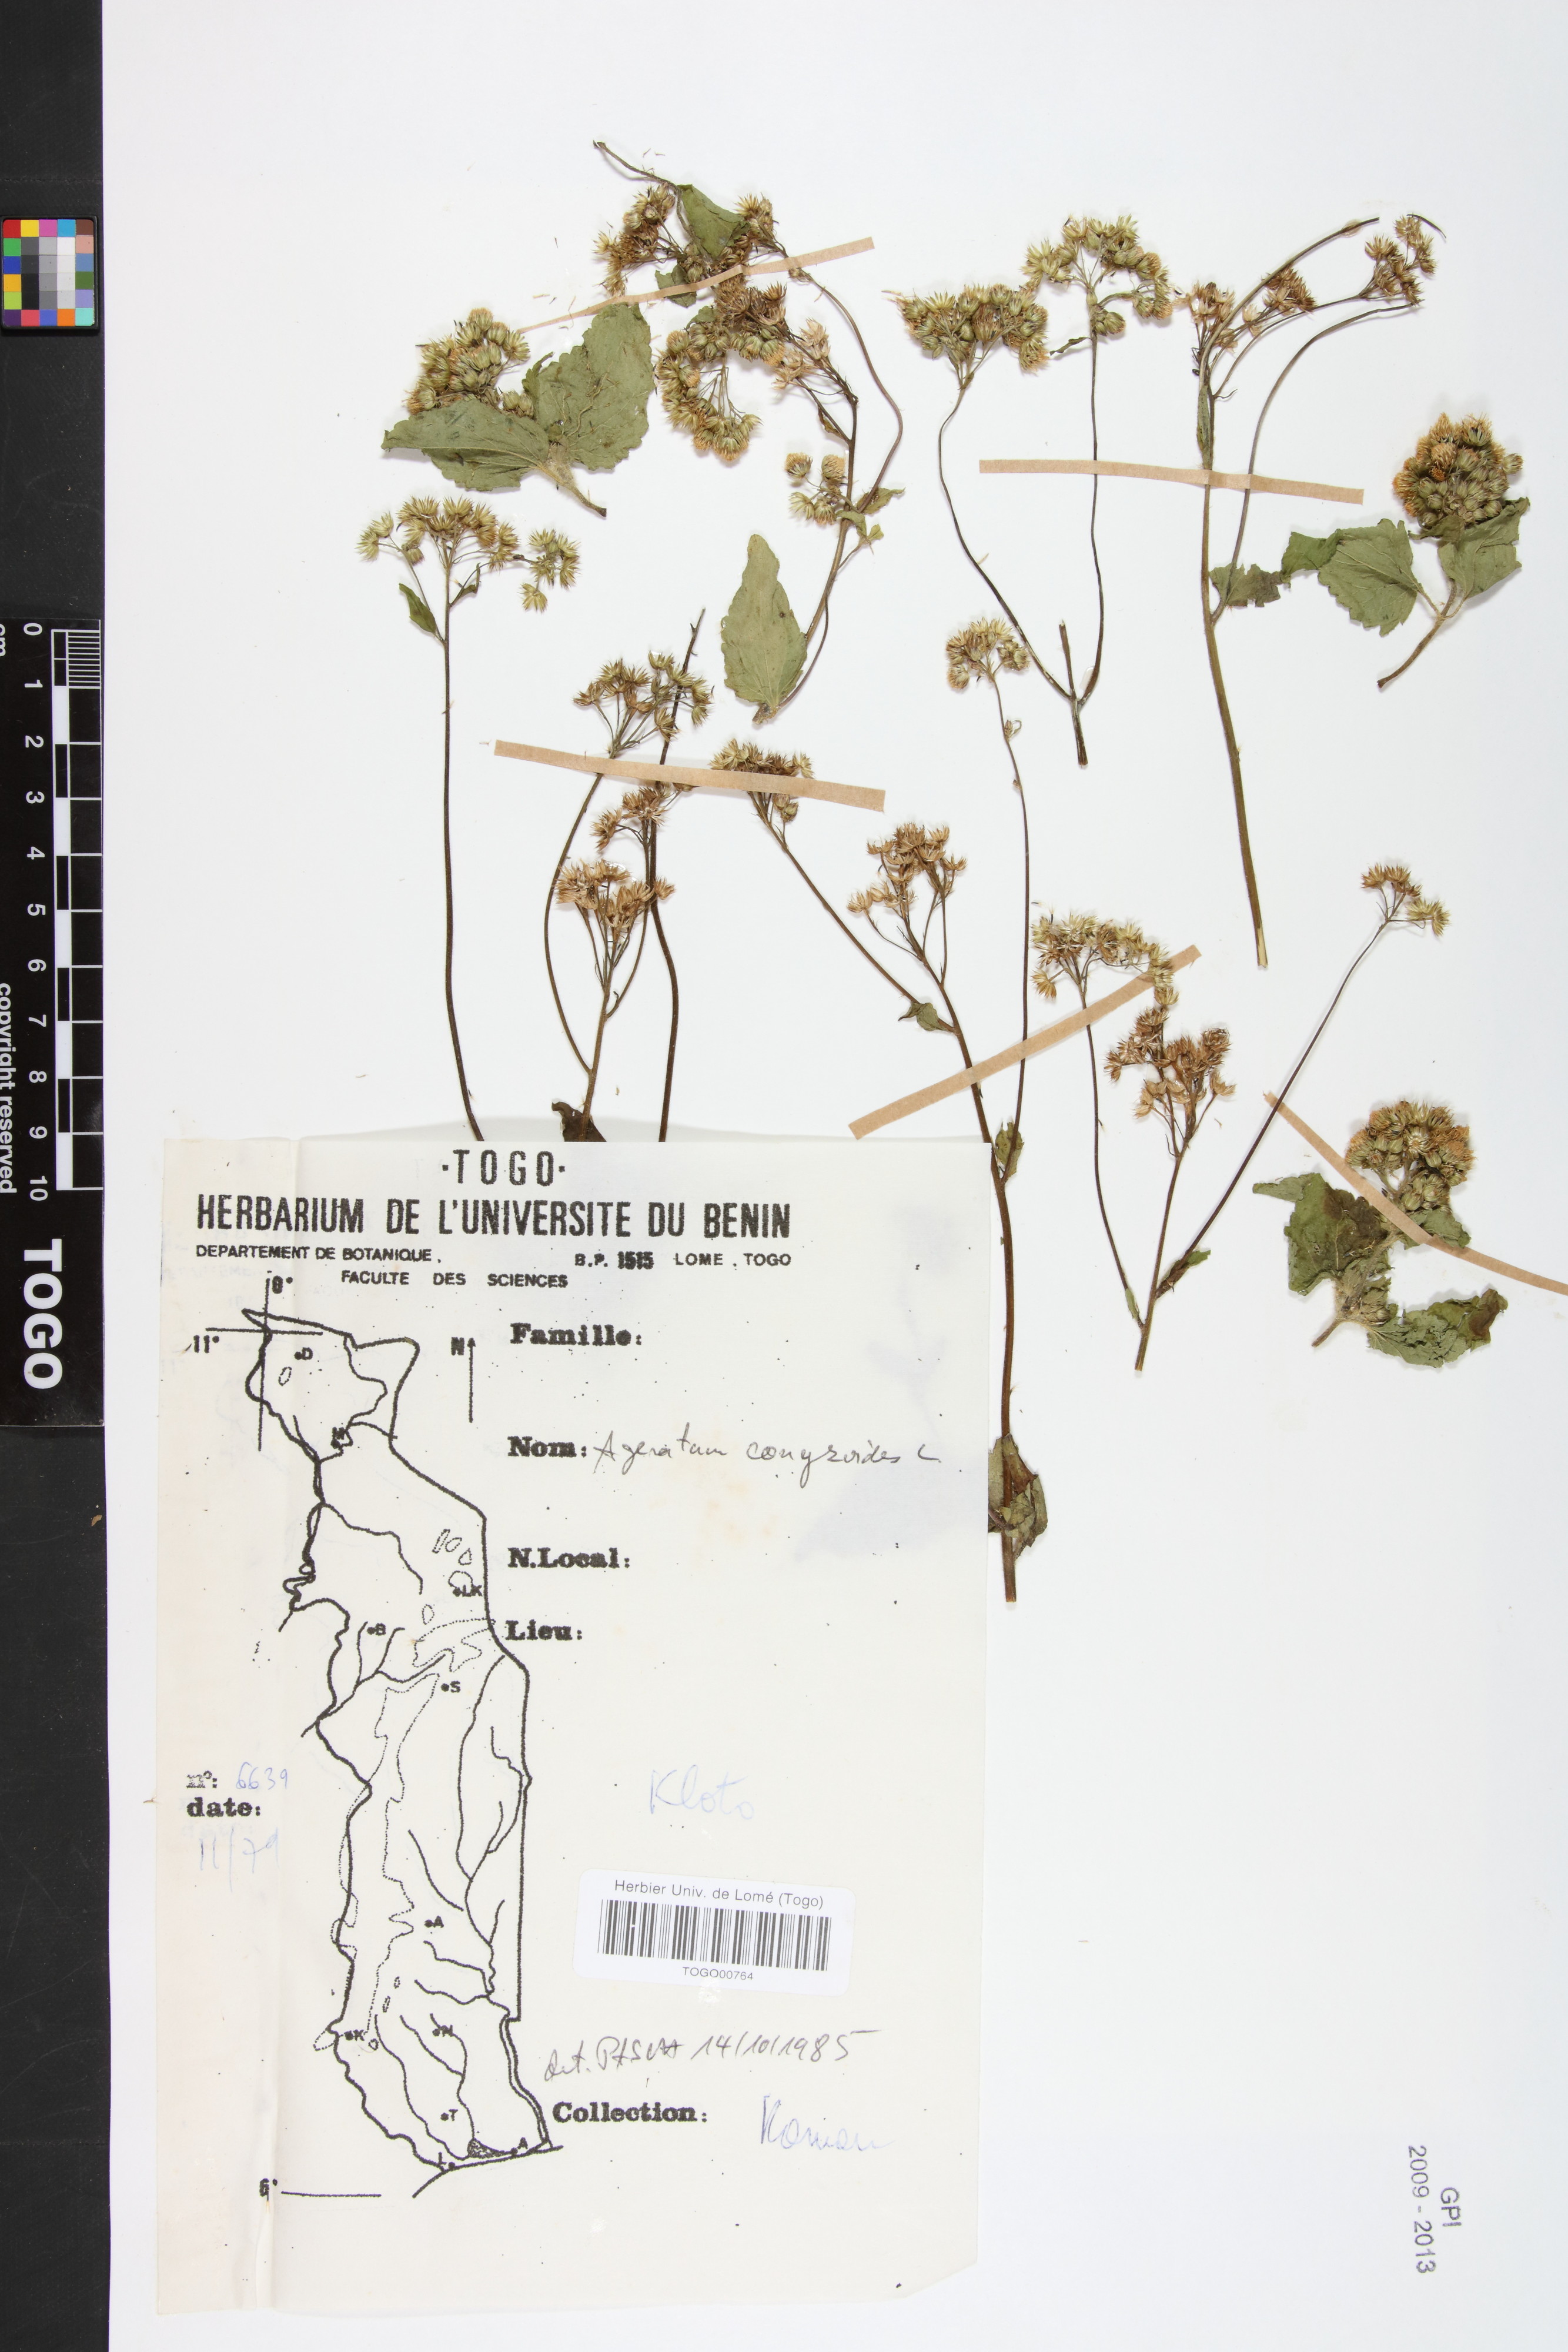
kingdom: Plantae
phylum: Tracheophyta
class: Magnoliopsida
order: Asterales
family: Asteraceae
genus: Ageratum
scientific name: Ageratum conyzoides
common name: Tropical whiteweed
